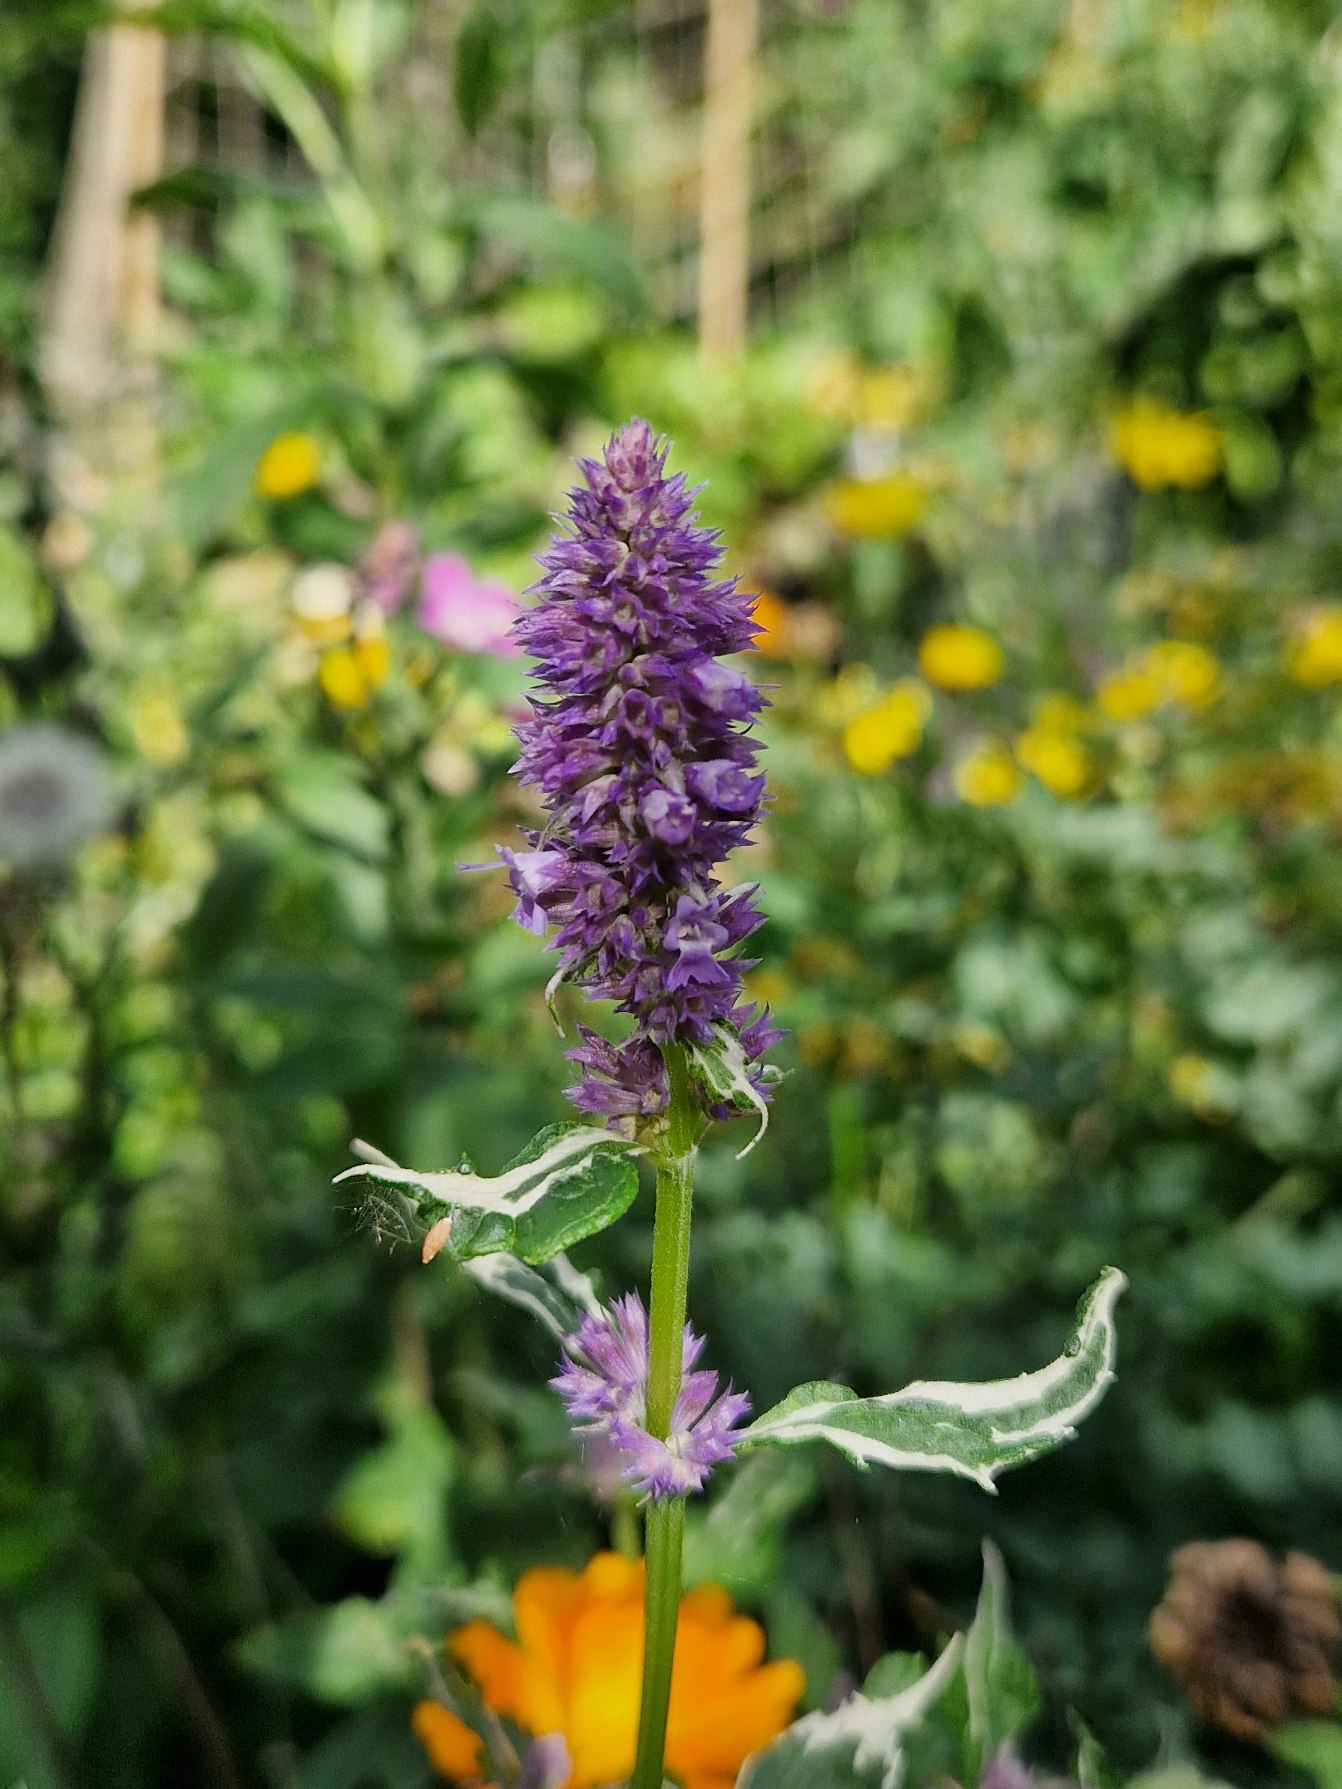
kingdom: Plantae
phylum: Tracheophyta
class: Magnoliopsida
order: Lamiales
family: Lamiaceae
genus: Agastache
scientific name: Agastache
